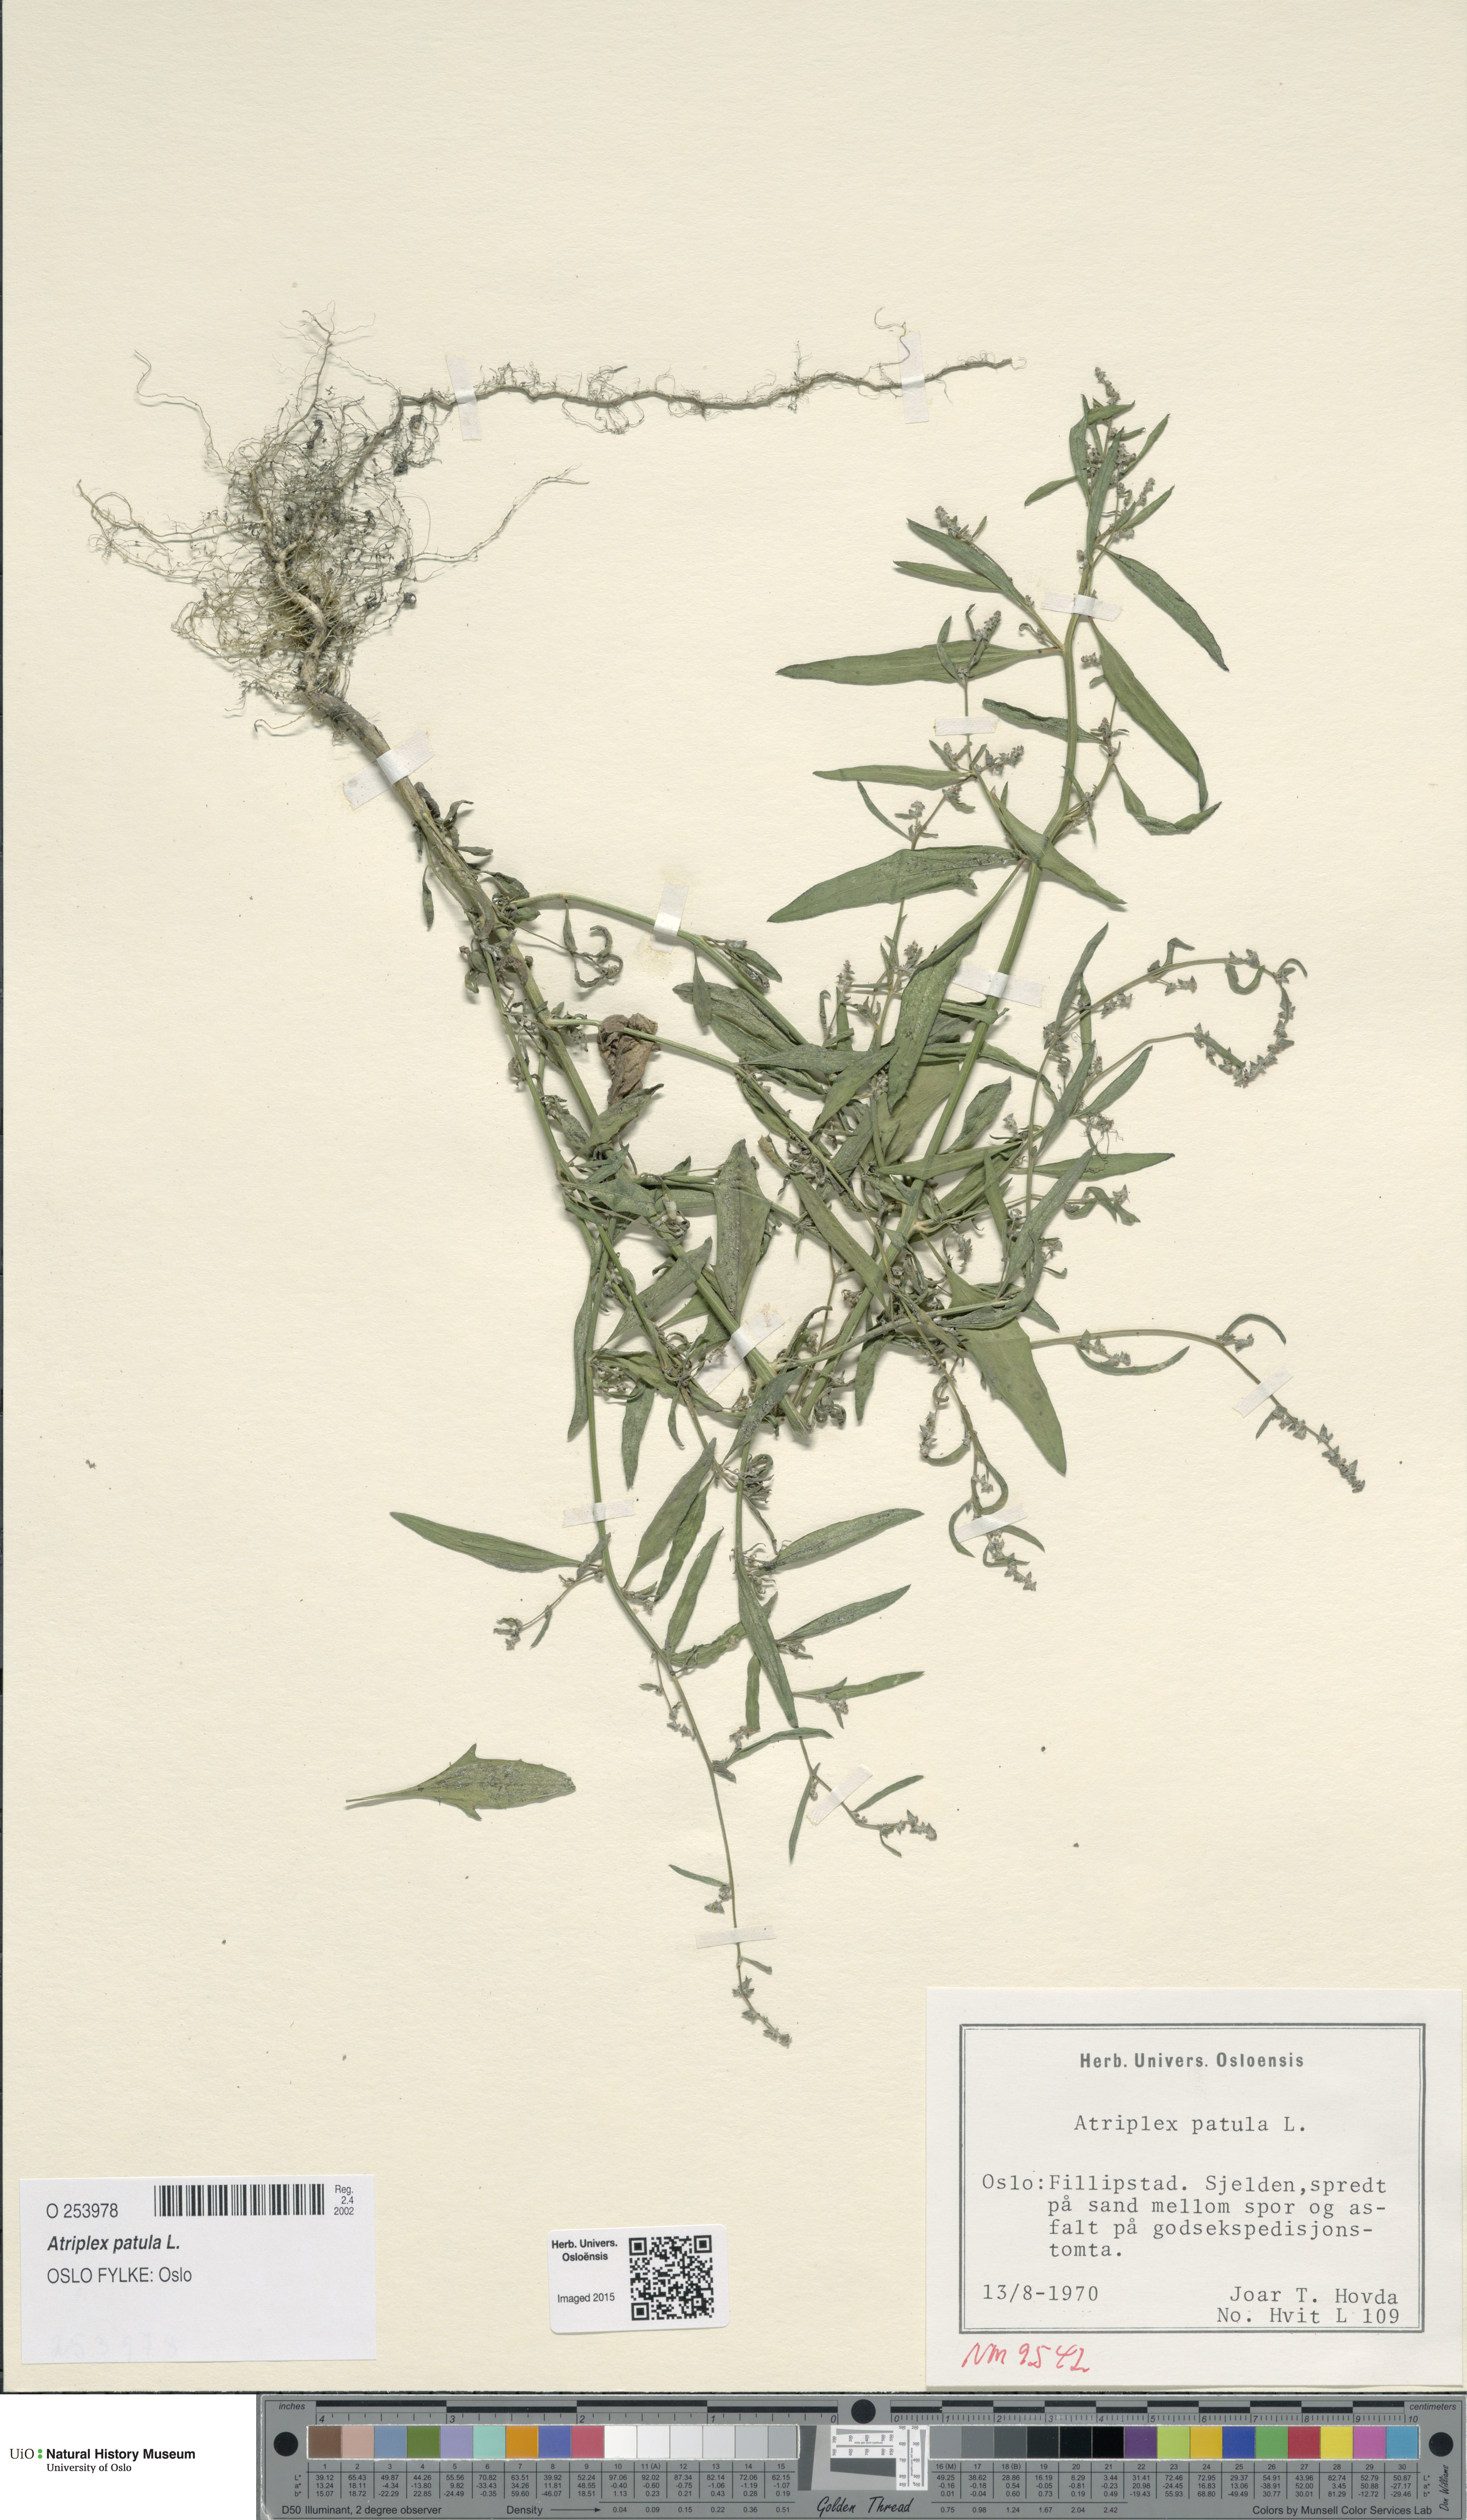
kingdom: Plantae
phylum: Tracheophyta
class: Magnoliopsida
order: Caryophyllales
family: Amaranthaceae
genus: Atriplex
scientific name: Atriplex patula
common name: Common orache
